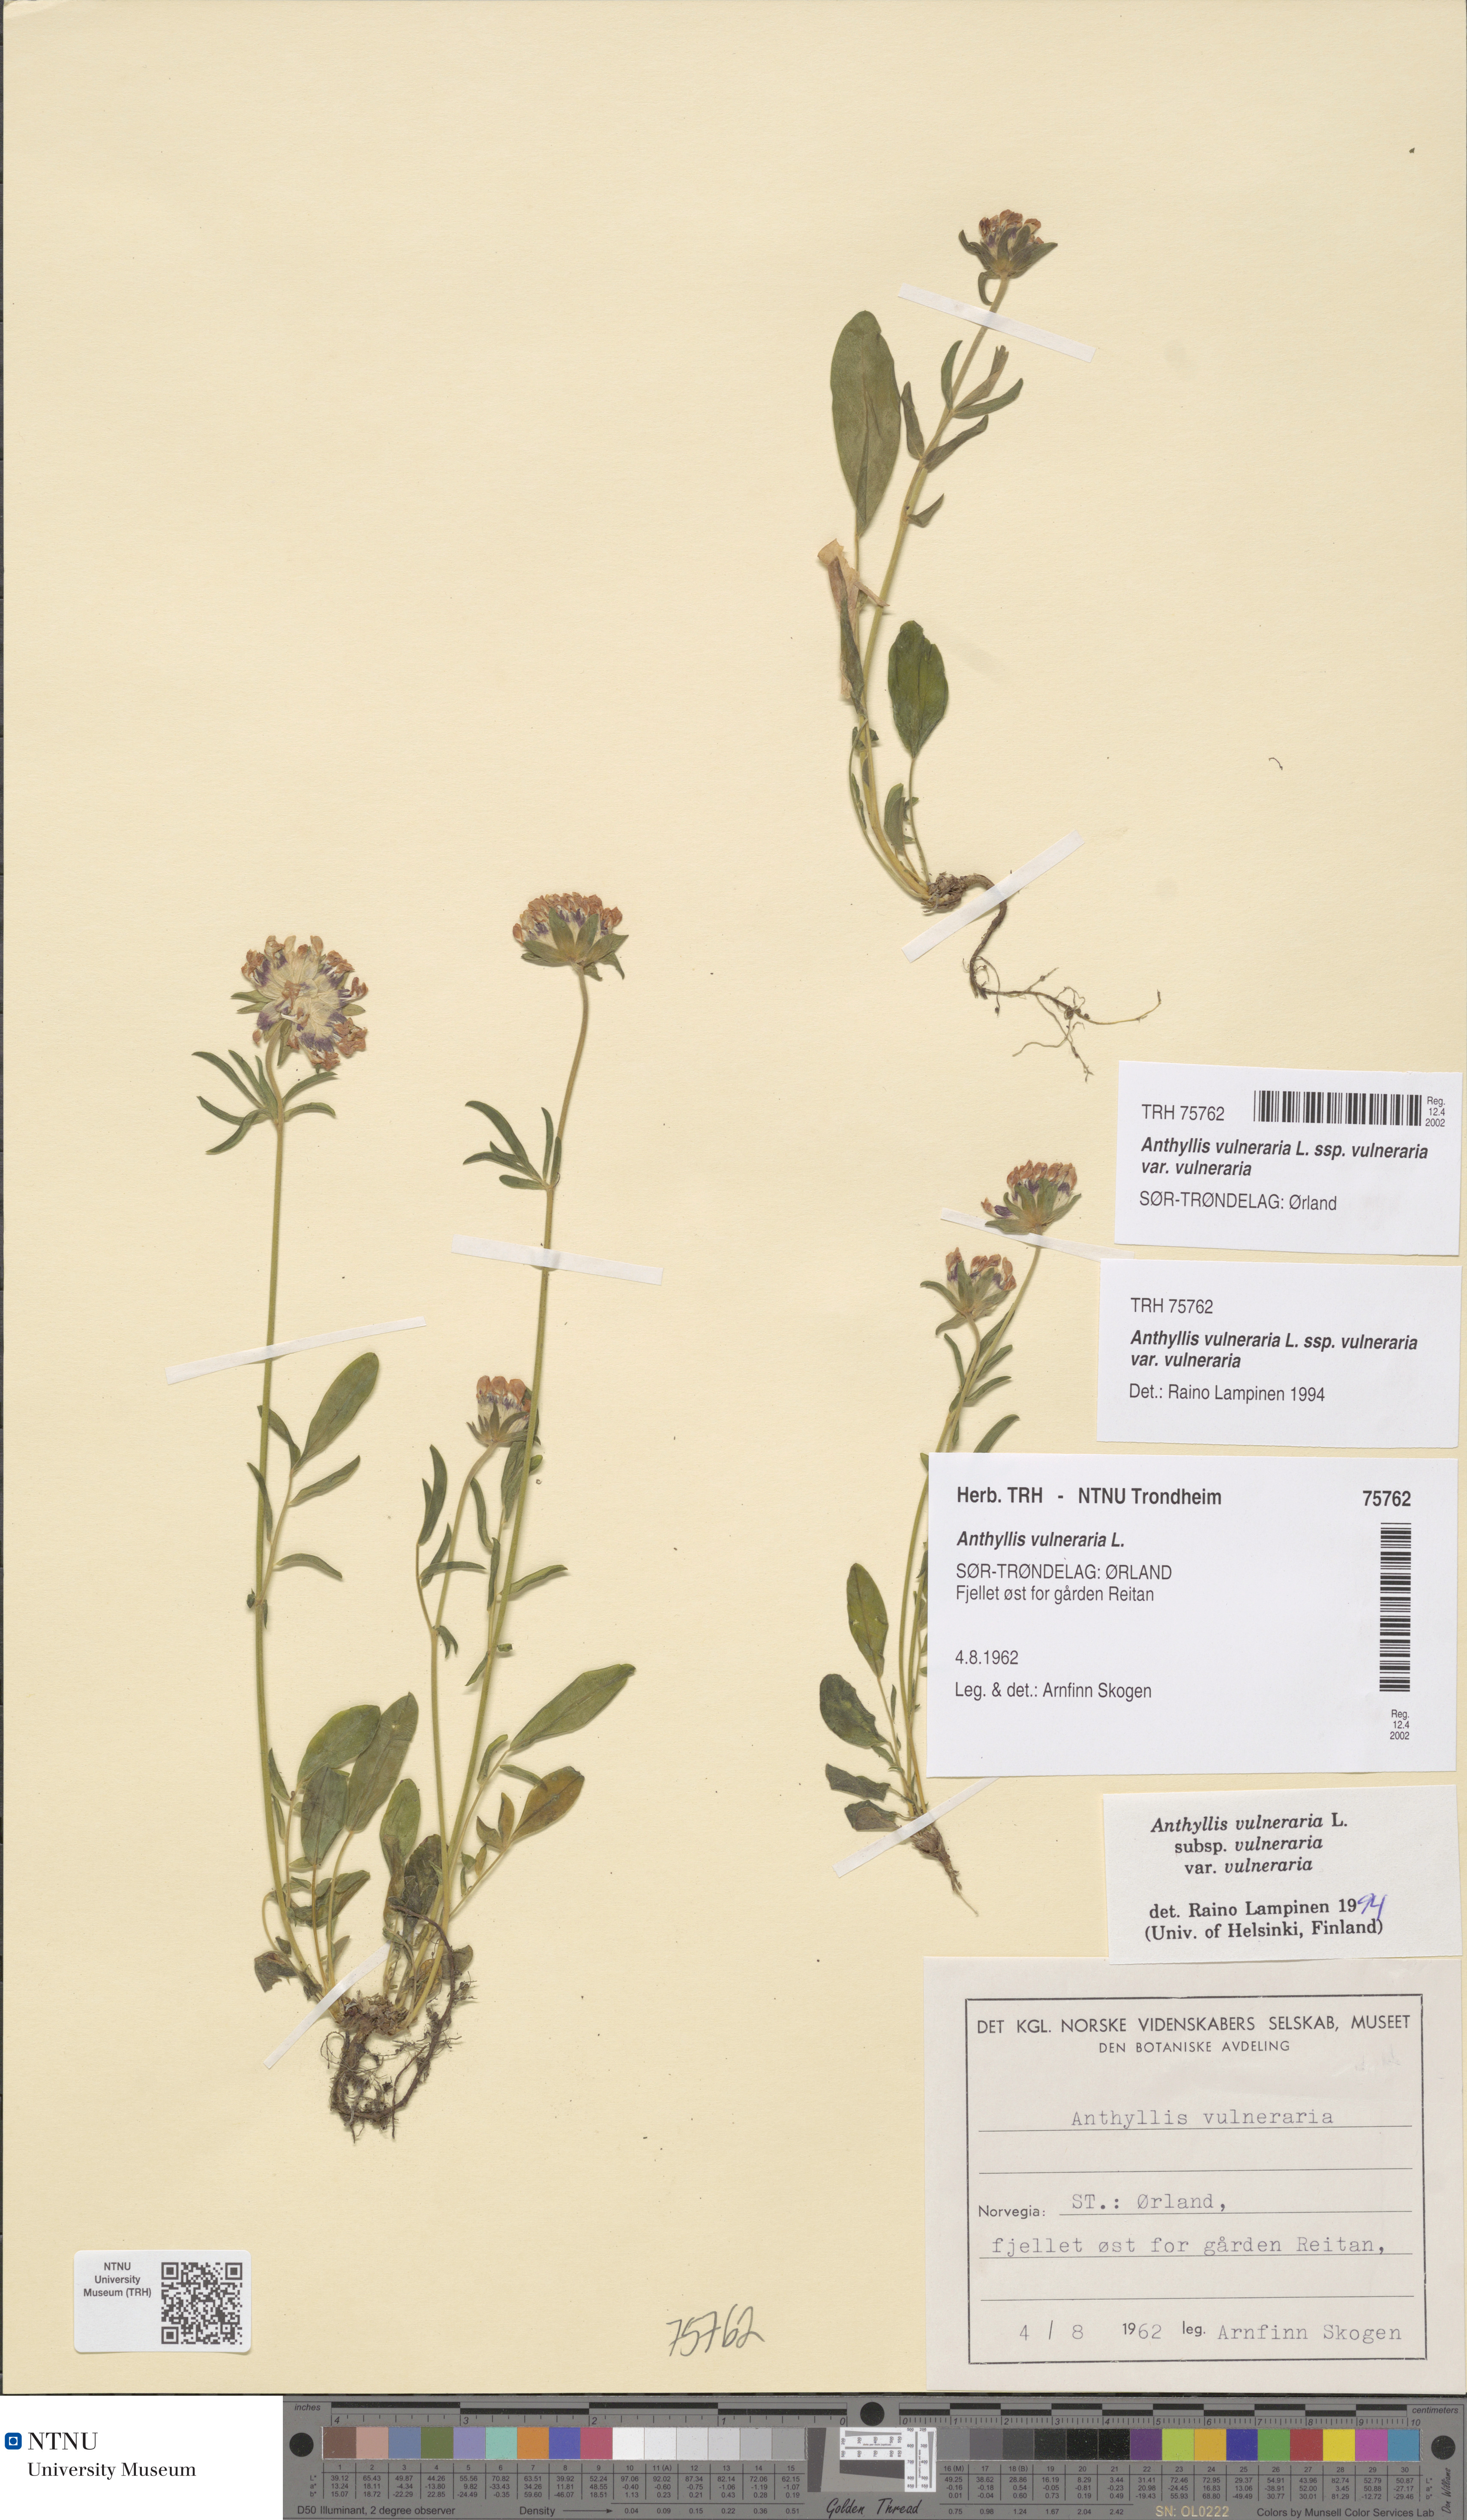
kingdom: Plantae
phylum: Tracheophyta
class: Magnoliopsida
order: Fabales
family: Fabaceae
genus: Anthyllis
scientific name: Anthyllis vulneraria
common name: Kidney vetch
